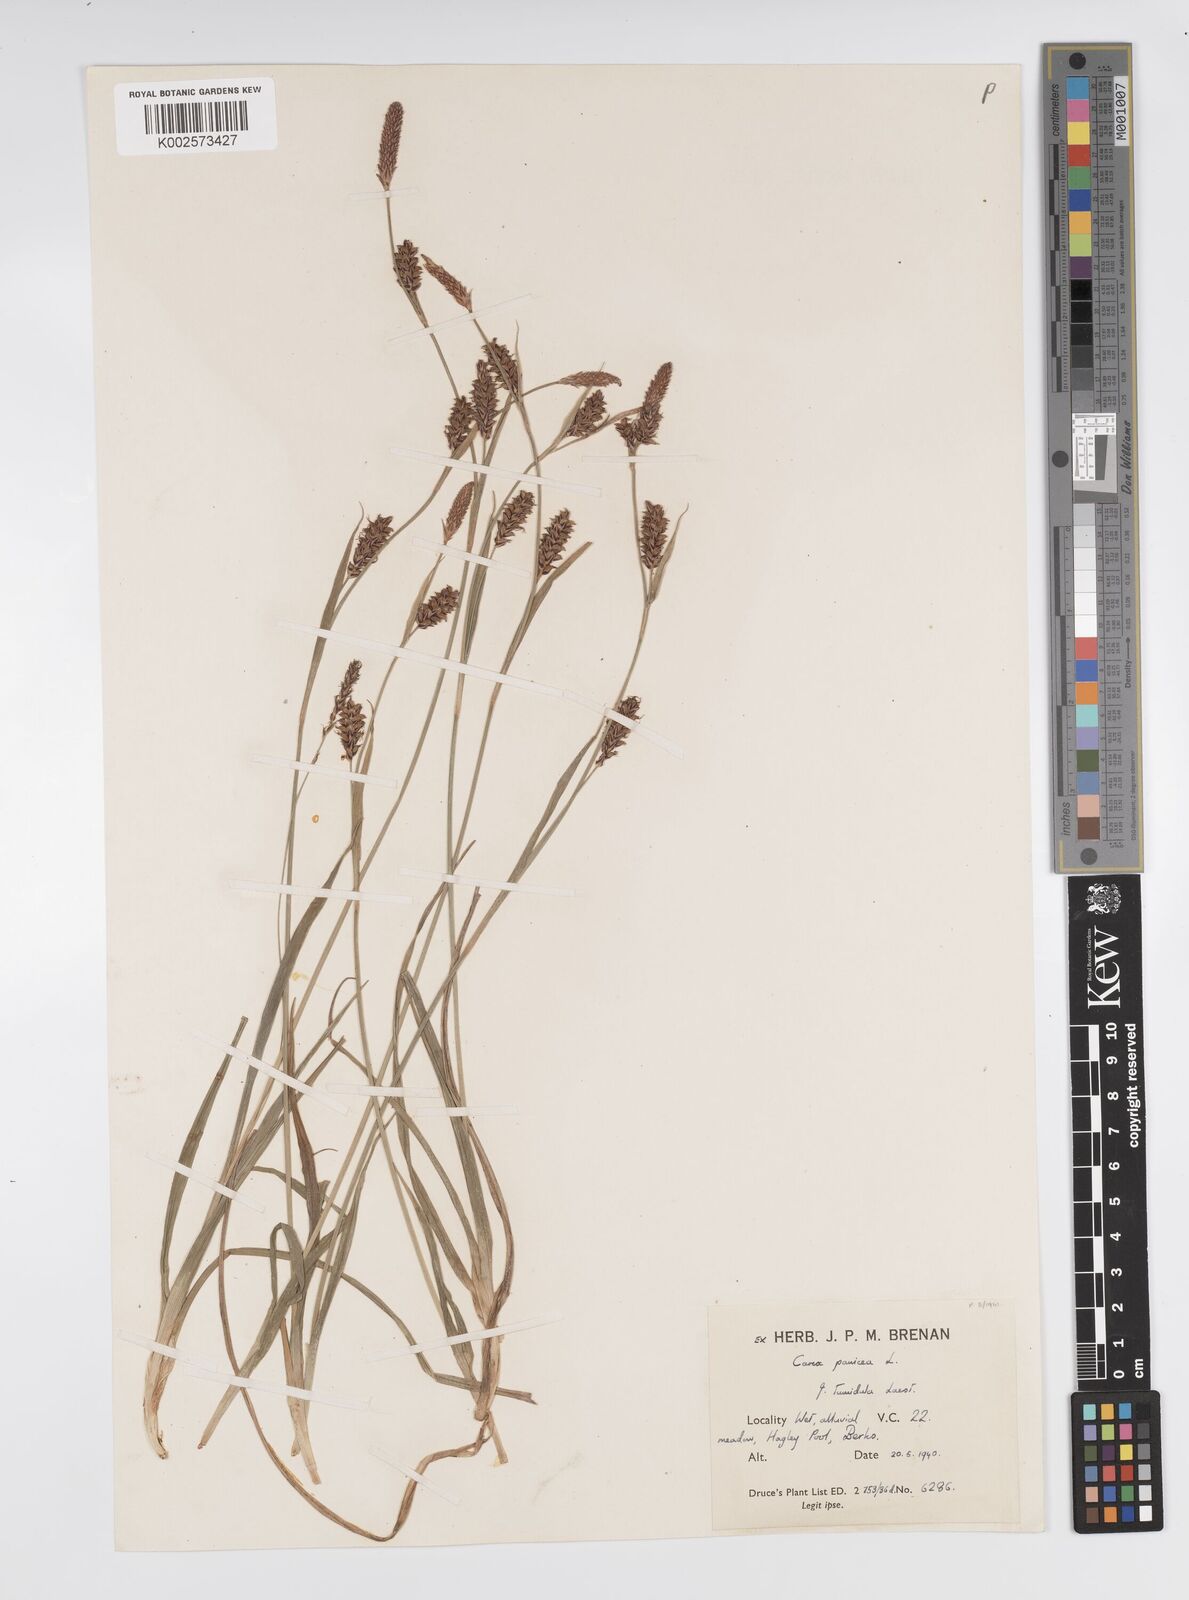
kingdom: Plantae
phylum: Tracheophyta
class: Liliopsida
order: Poales
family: Cyperaceae
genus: Carex
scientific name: Carex panicea
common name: Carnation sedge
